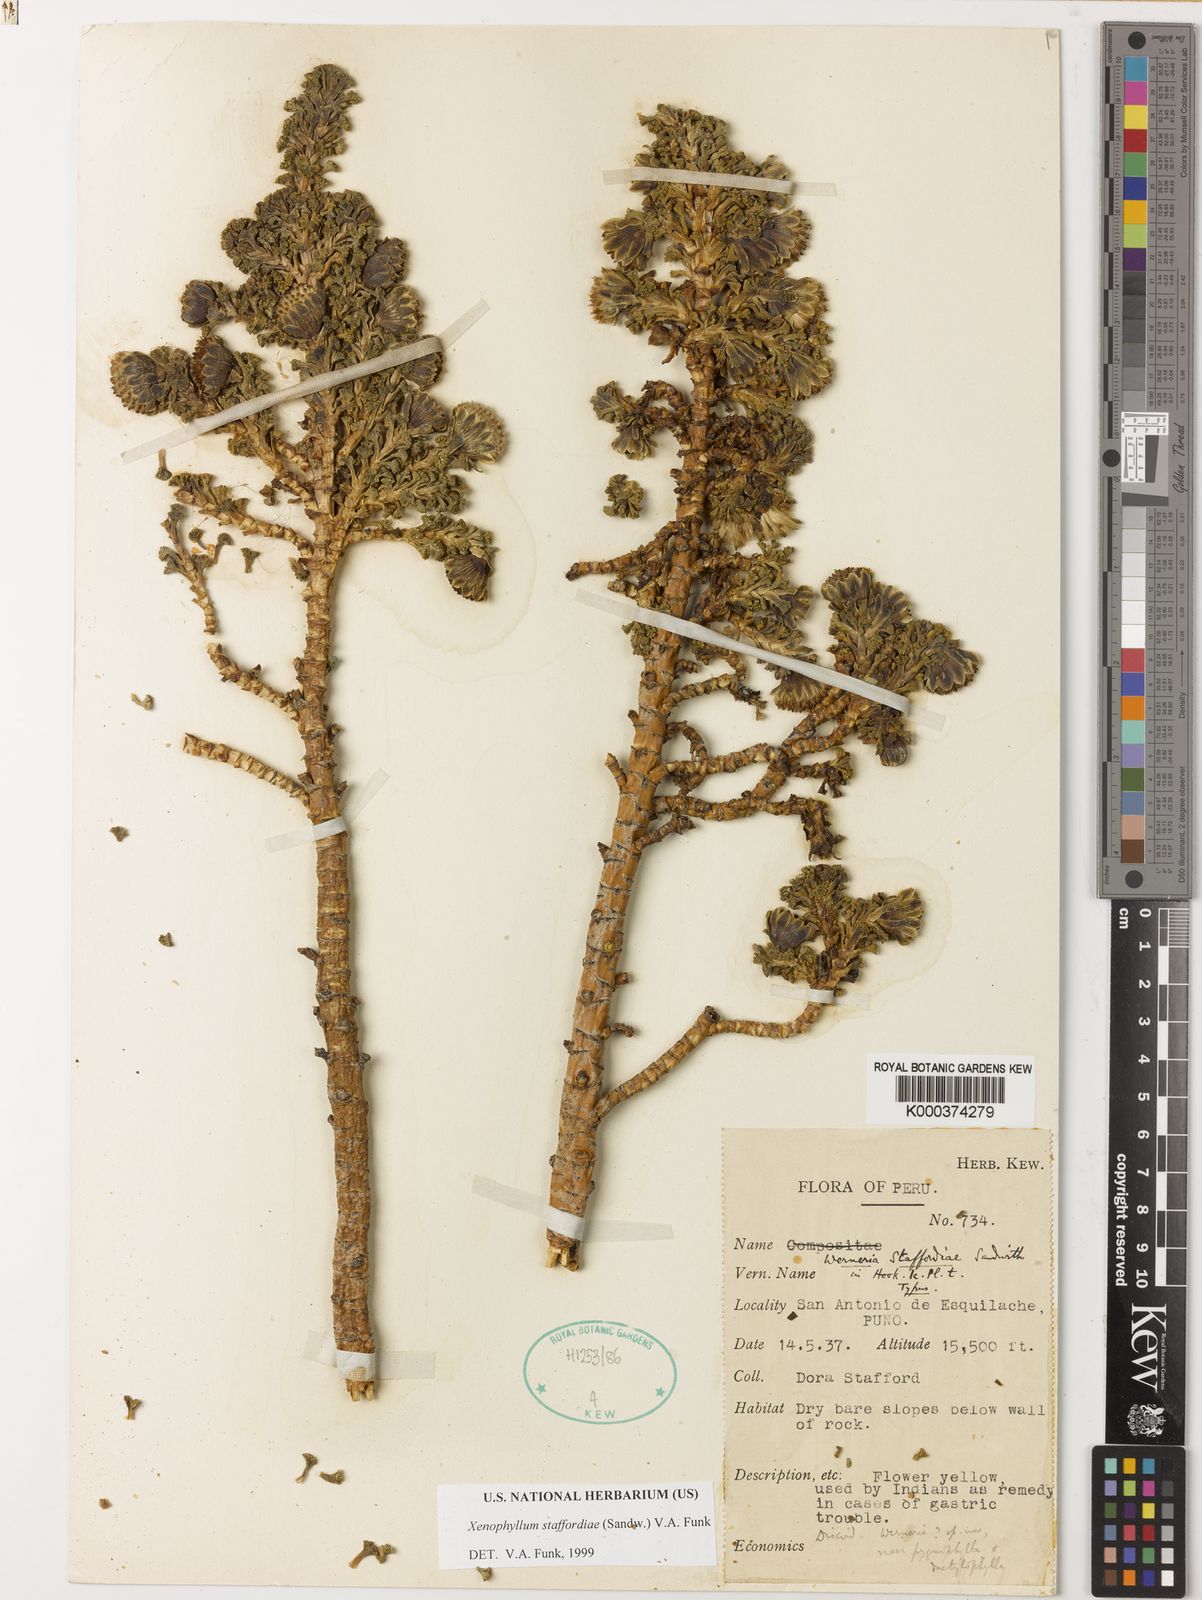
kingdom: Plantae
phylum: Tracheophyta
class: Magnoliopsida
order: Asterales
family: Asteraceae
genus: Werneria
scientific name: Werneria
